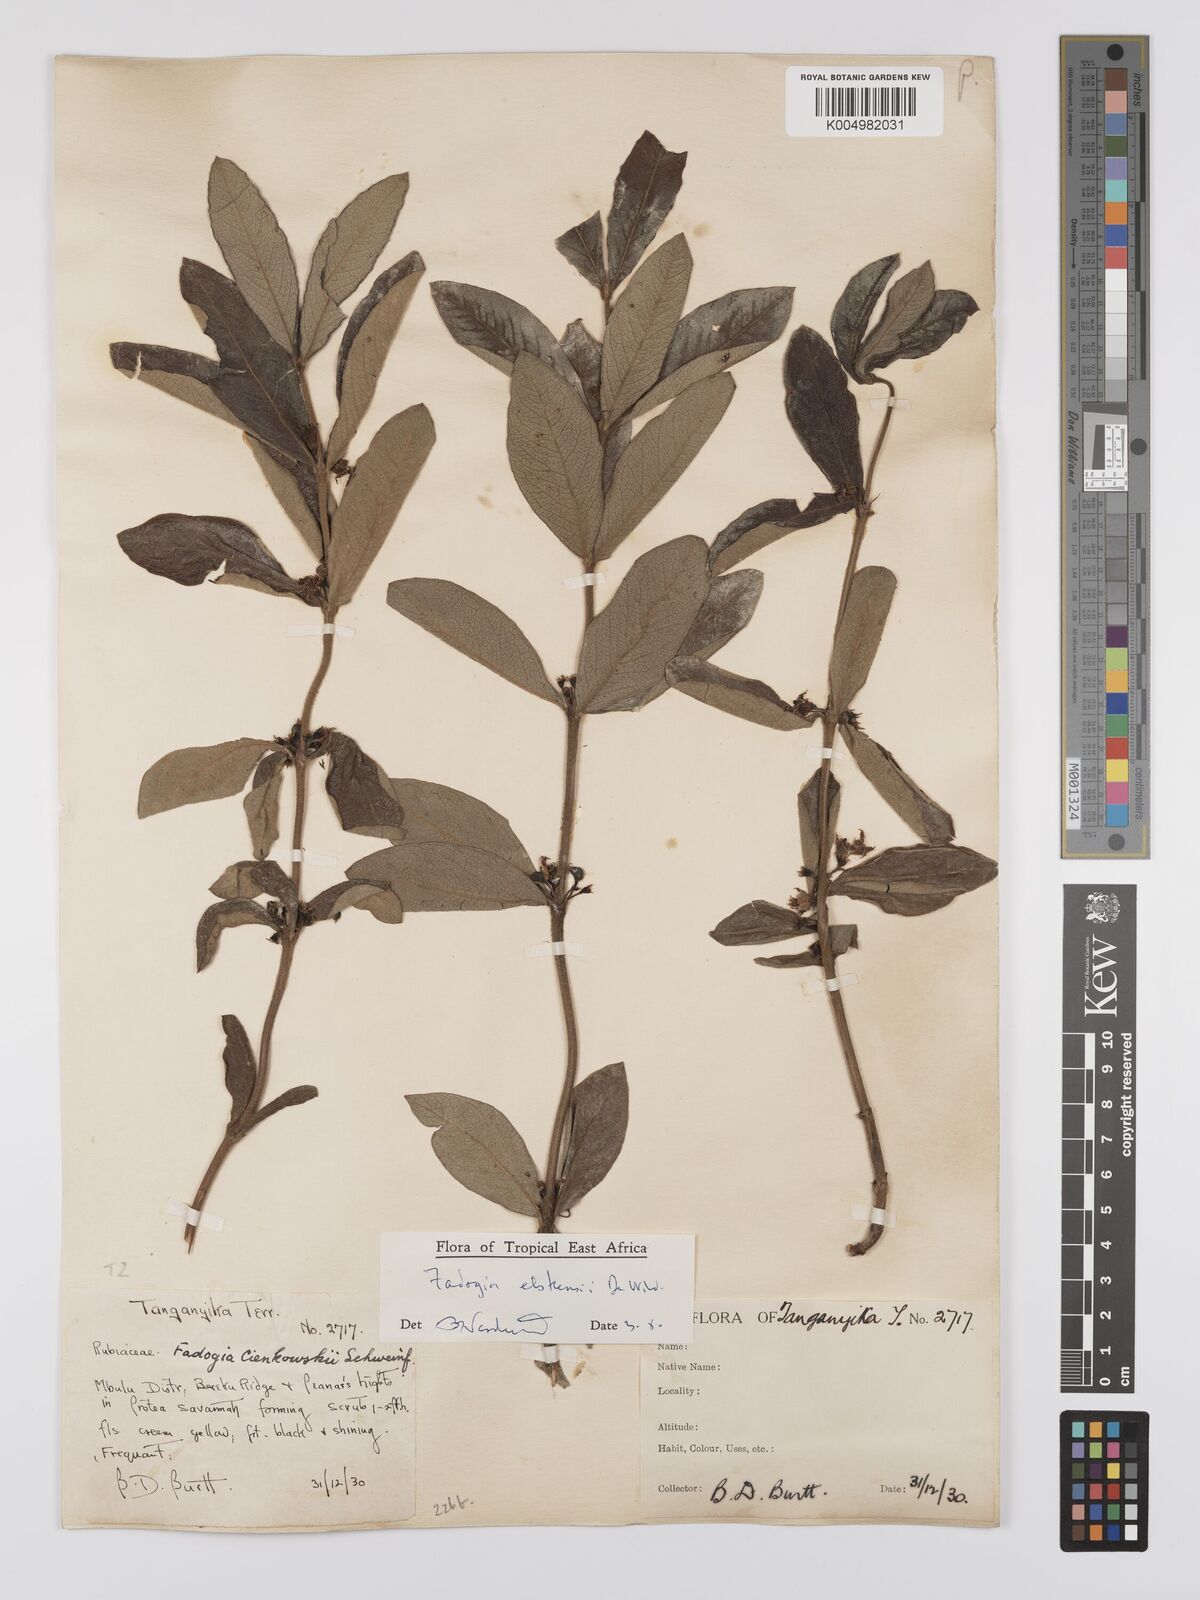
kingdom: Plantae
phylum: Tracheophyta
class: Magnoliopsida
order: Gentianales
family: Rubiaceae
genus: Fadogia
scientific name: Fadogia elskensii
